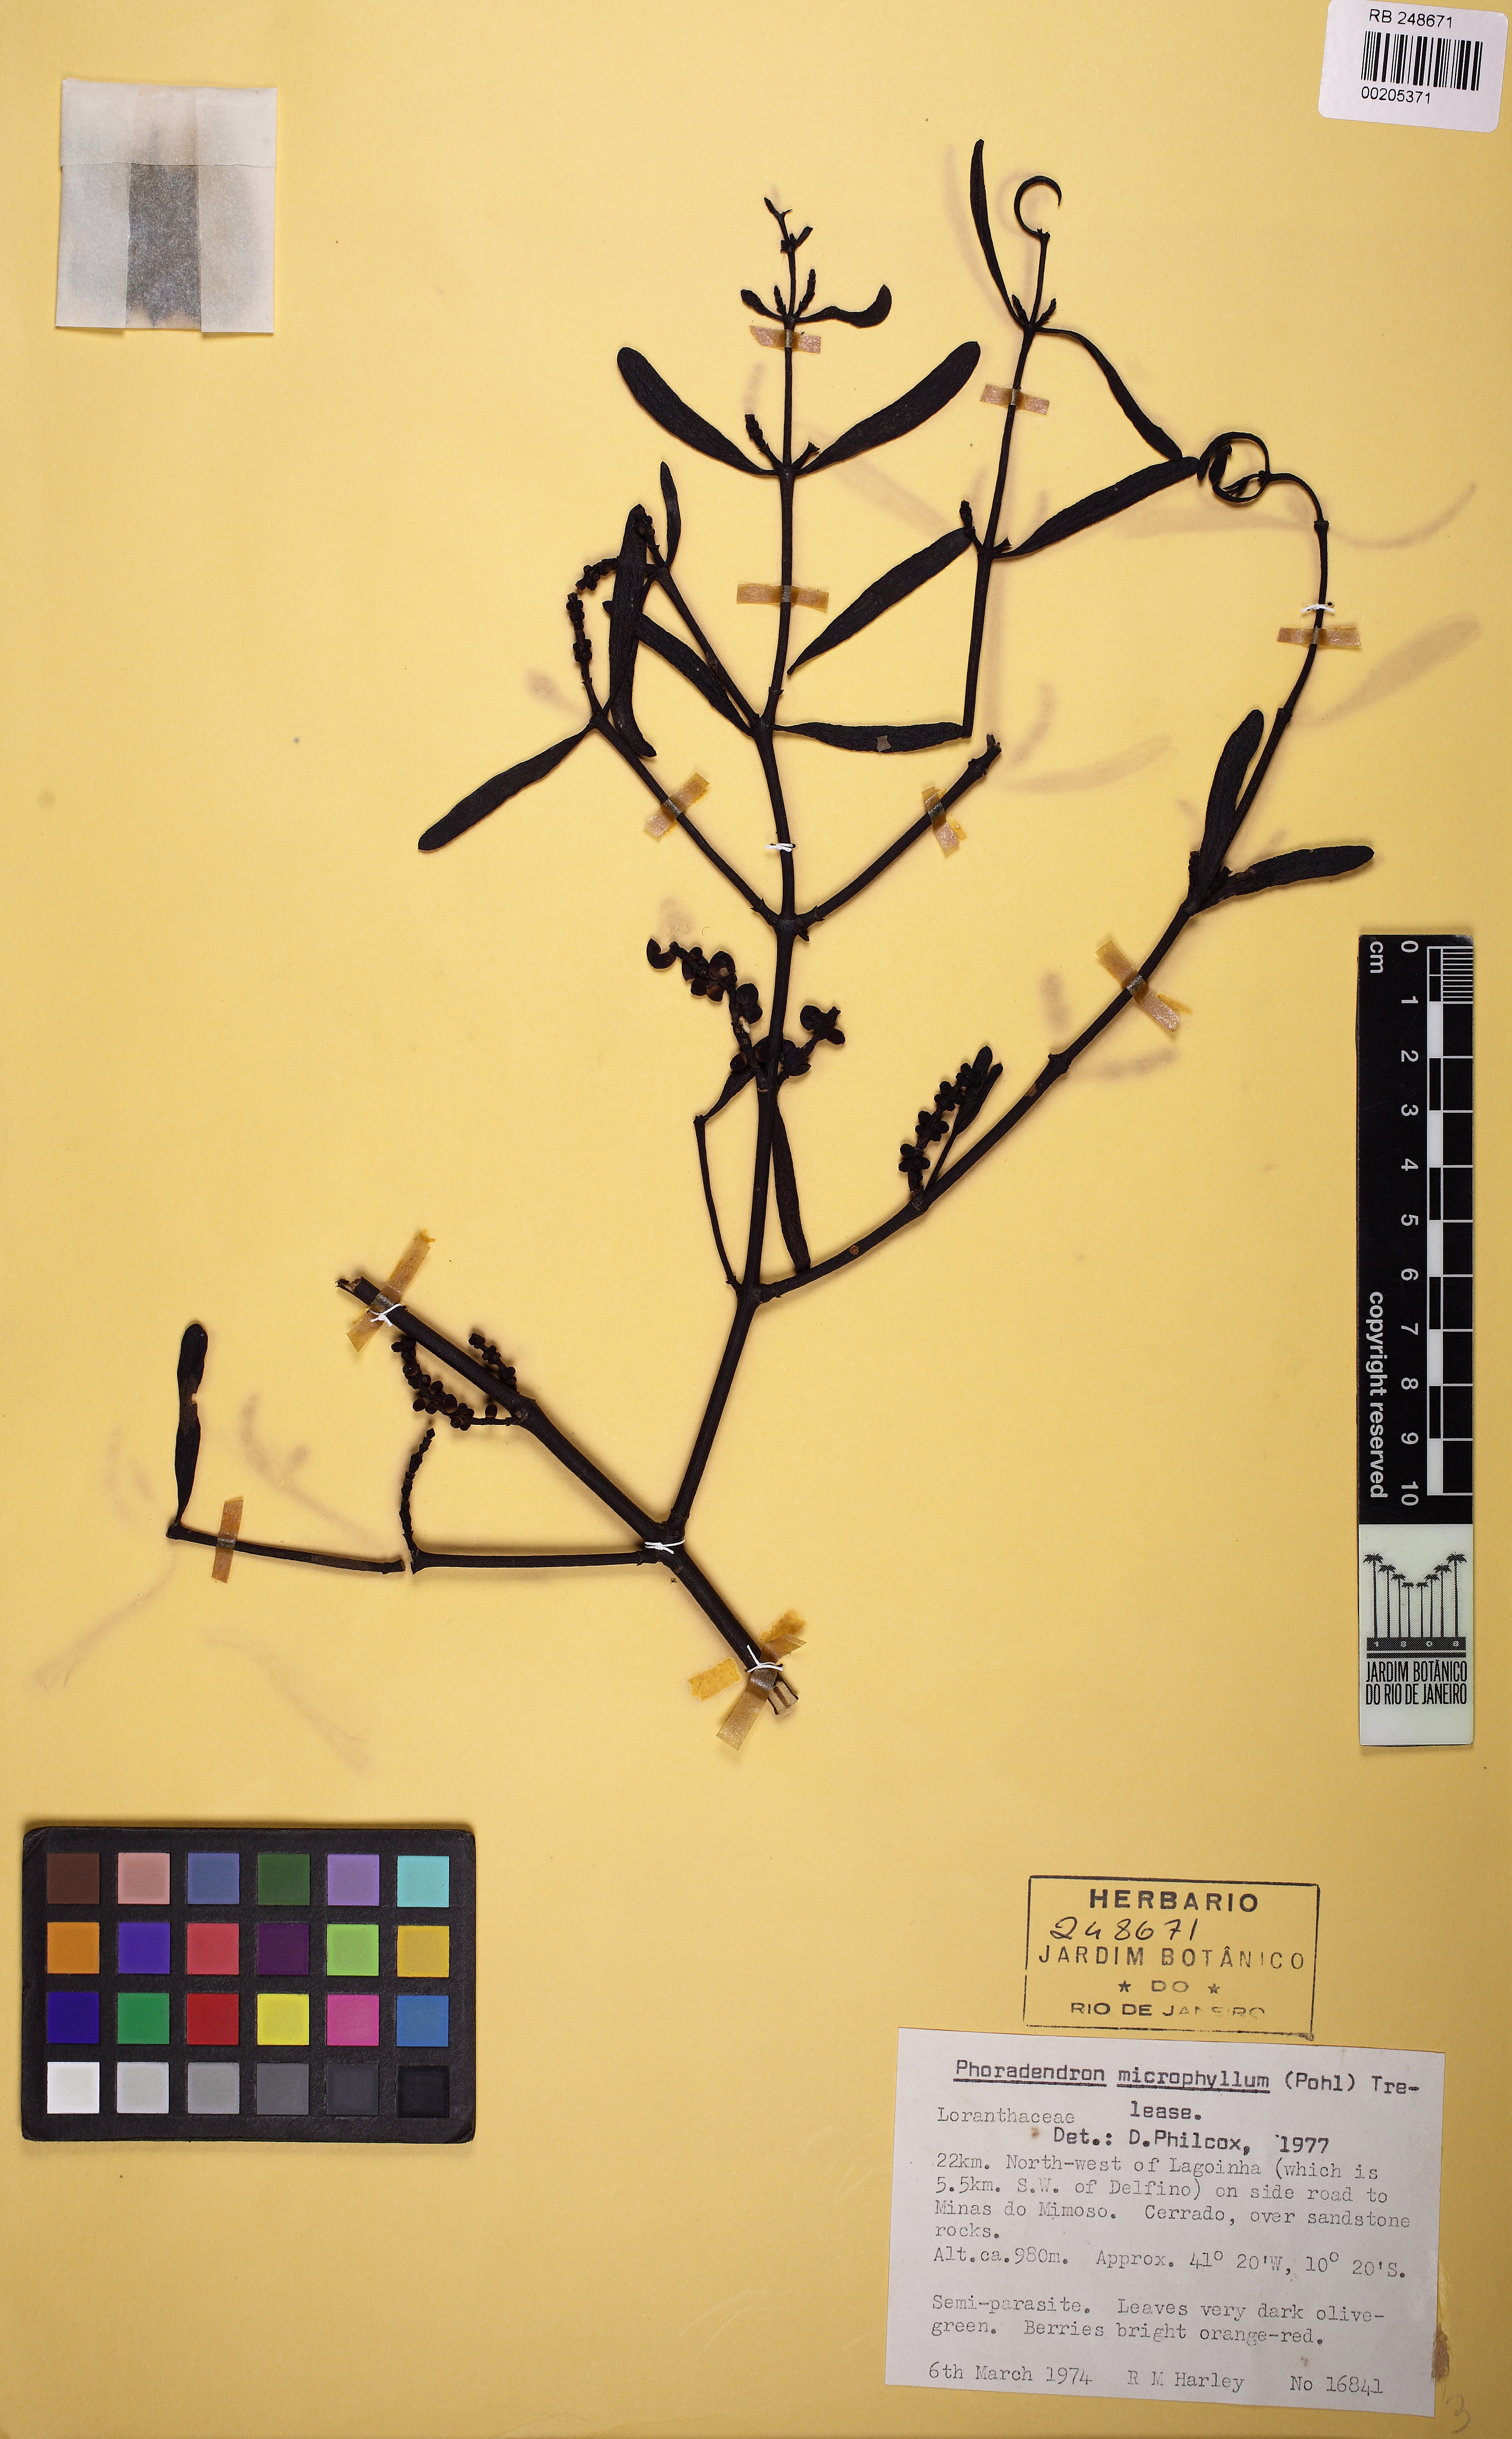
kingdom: Plantae
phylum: Tracheophyta
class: Magnoliopsida
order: Santalales
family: Viscaceae
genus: Phoradendron
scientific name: Phoradendron microphyllum
